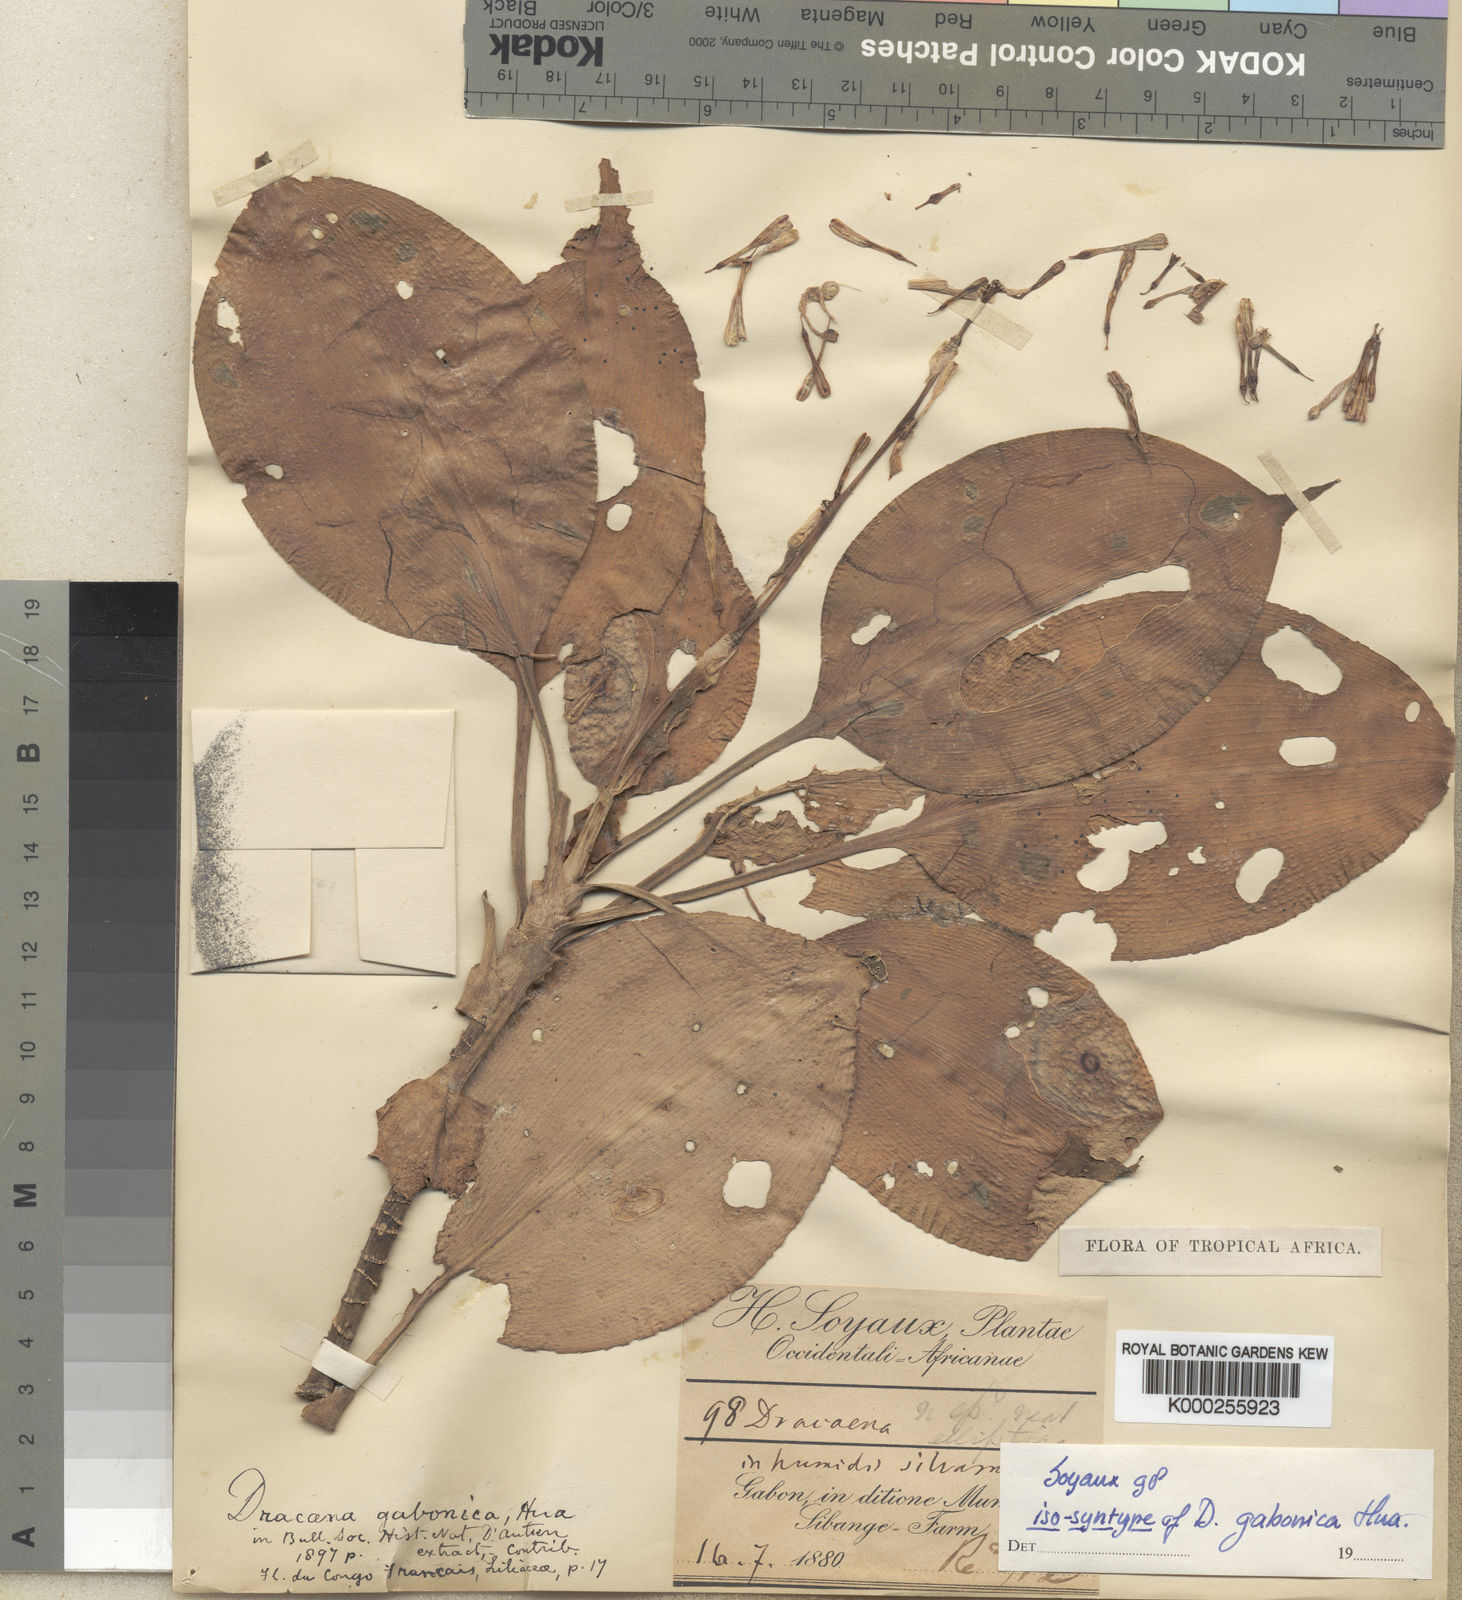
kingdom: Plantae
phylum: Tracheophyta
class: Liliopsida
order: Asparagales
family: Asparagaceae
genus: Dracaena
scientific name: Dracaena glomerata
